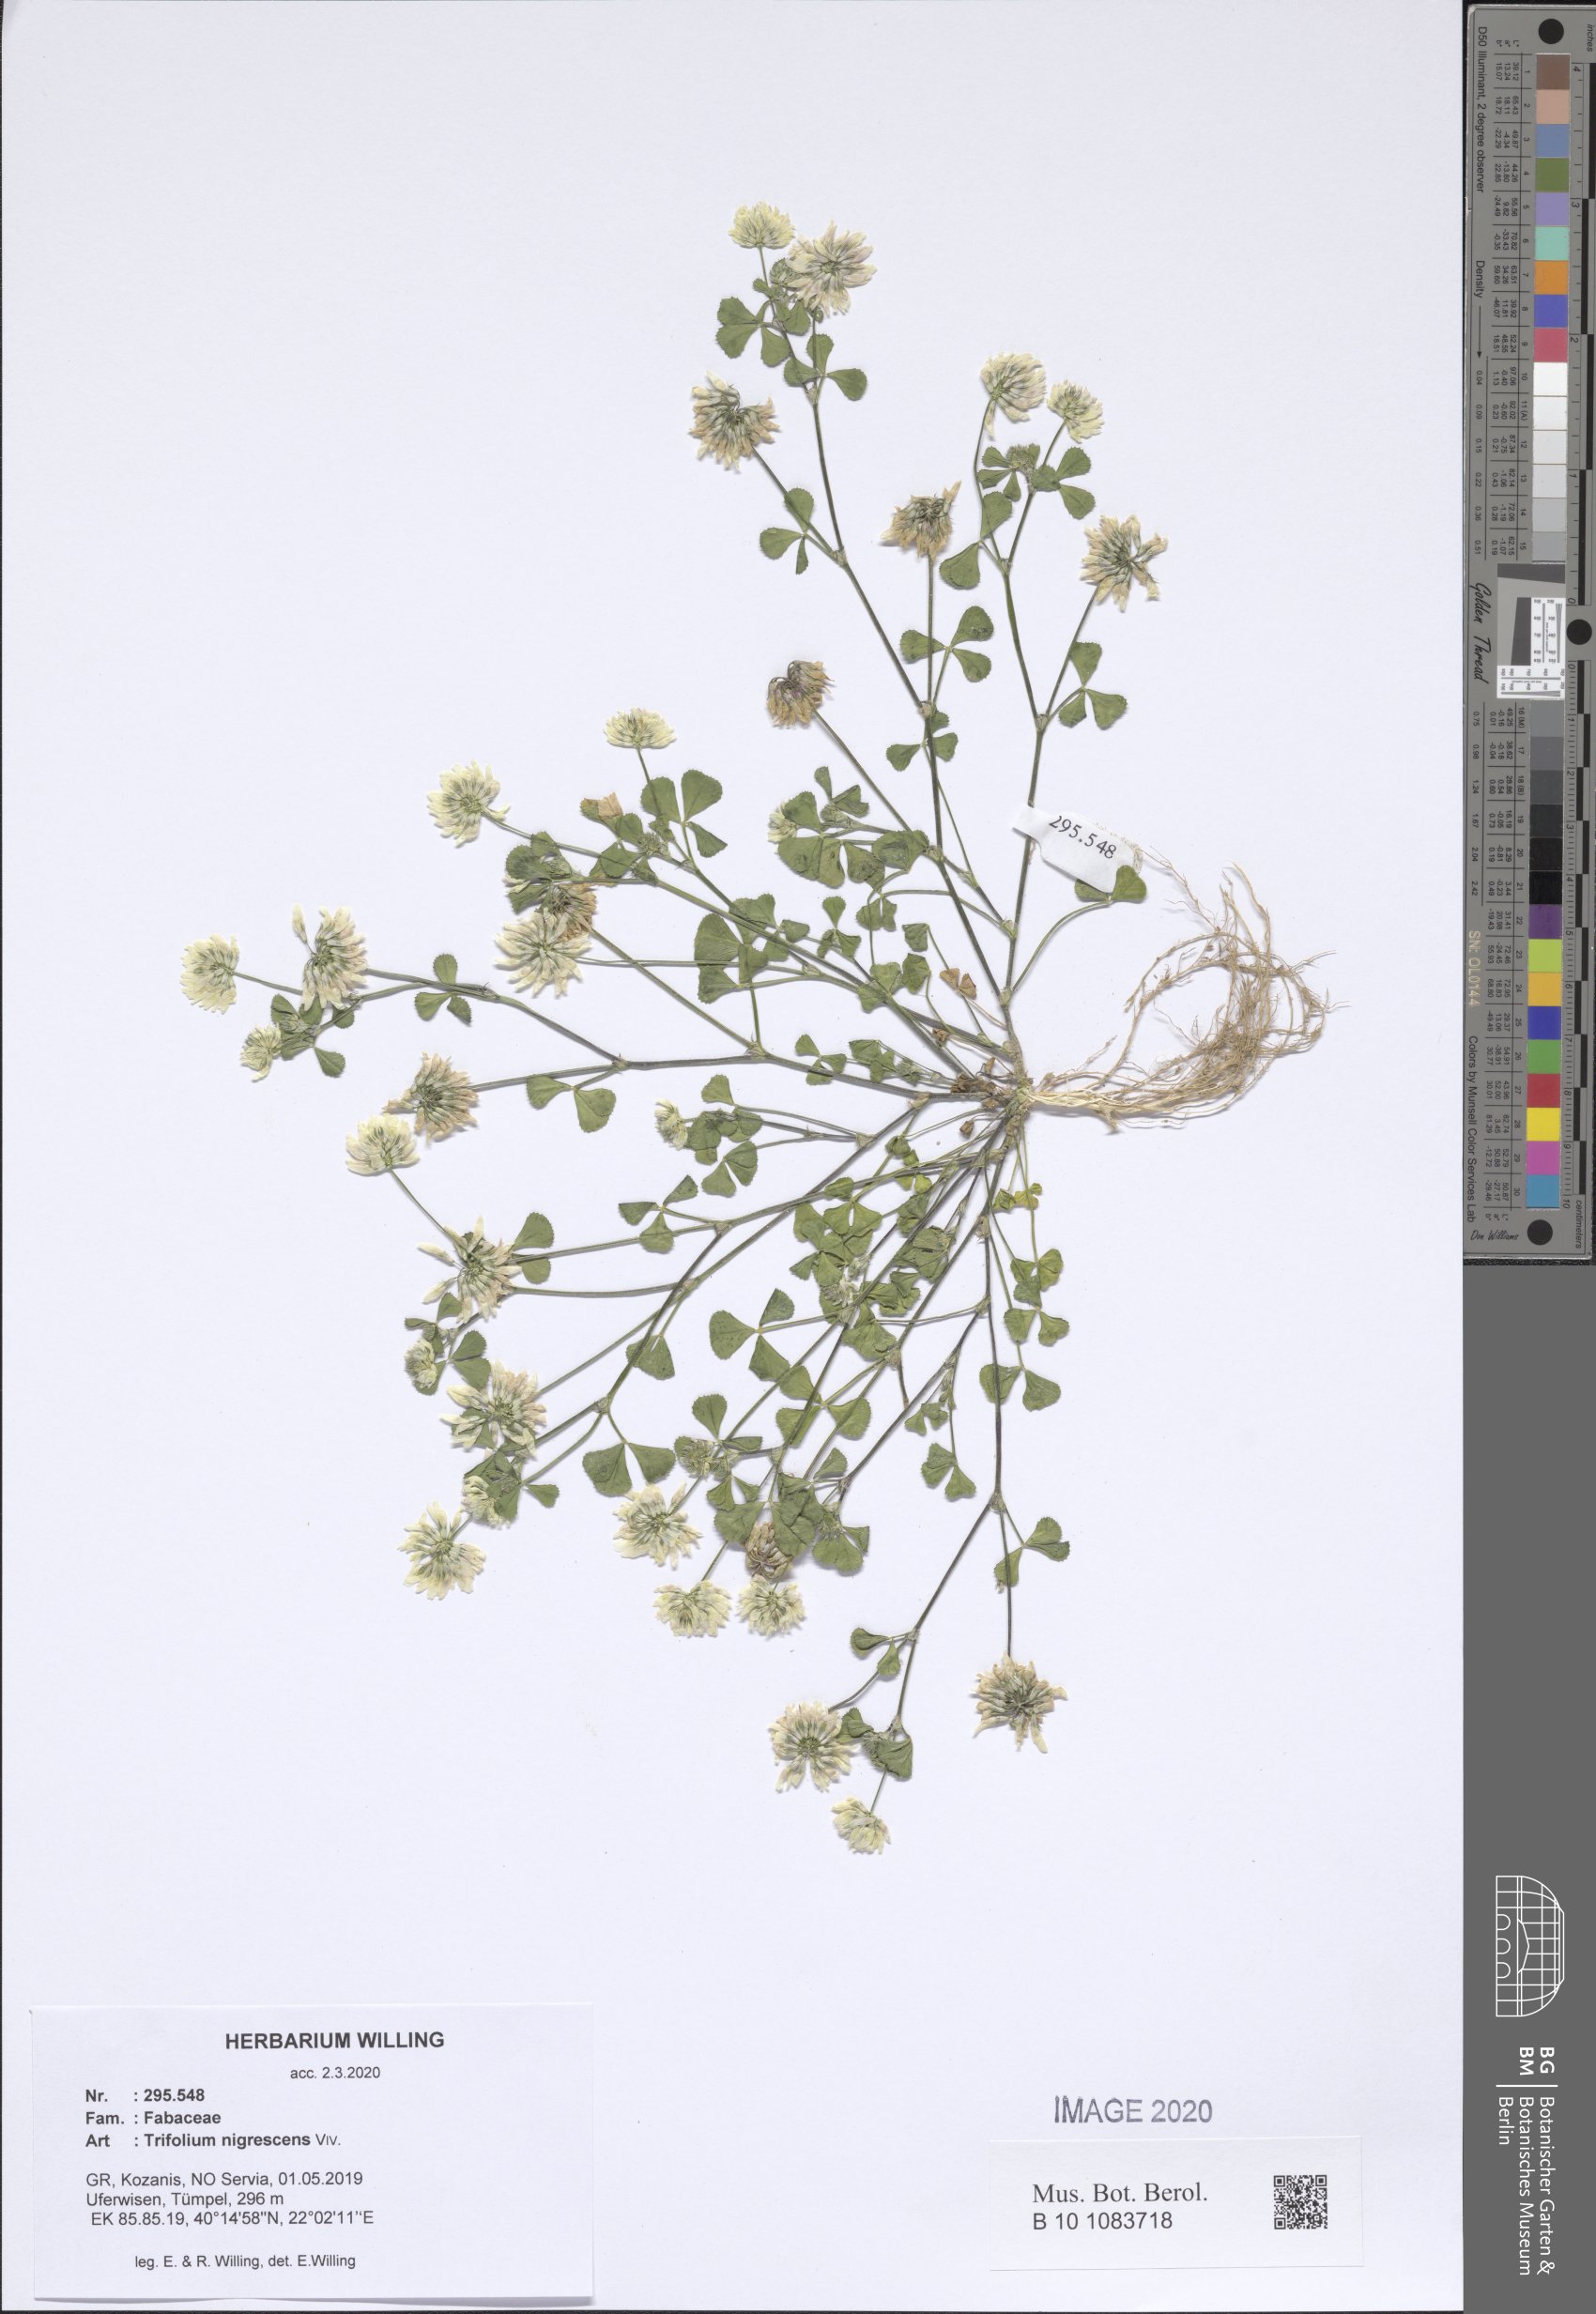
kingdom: Plantae
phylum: Tracheophyta
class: Magnoliopsida
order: Fabales
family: Fabaceae
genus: Trifolium
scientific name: Trifolium nigrescens
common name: Small white clover
